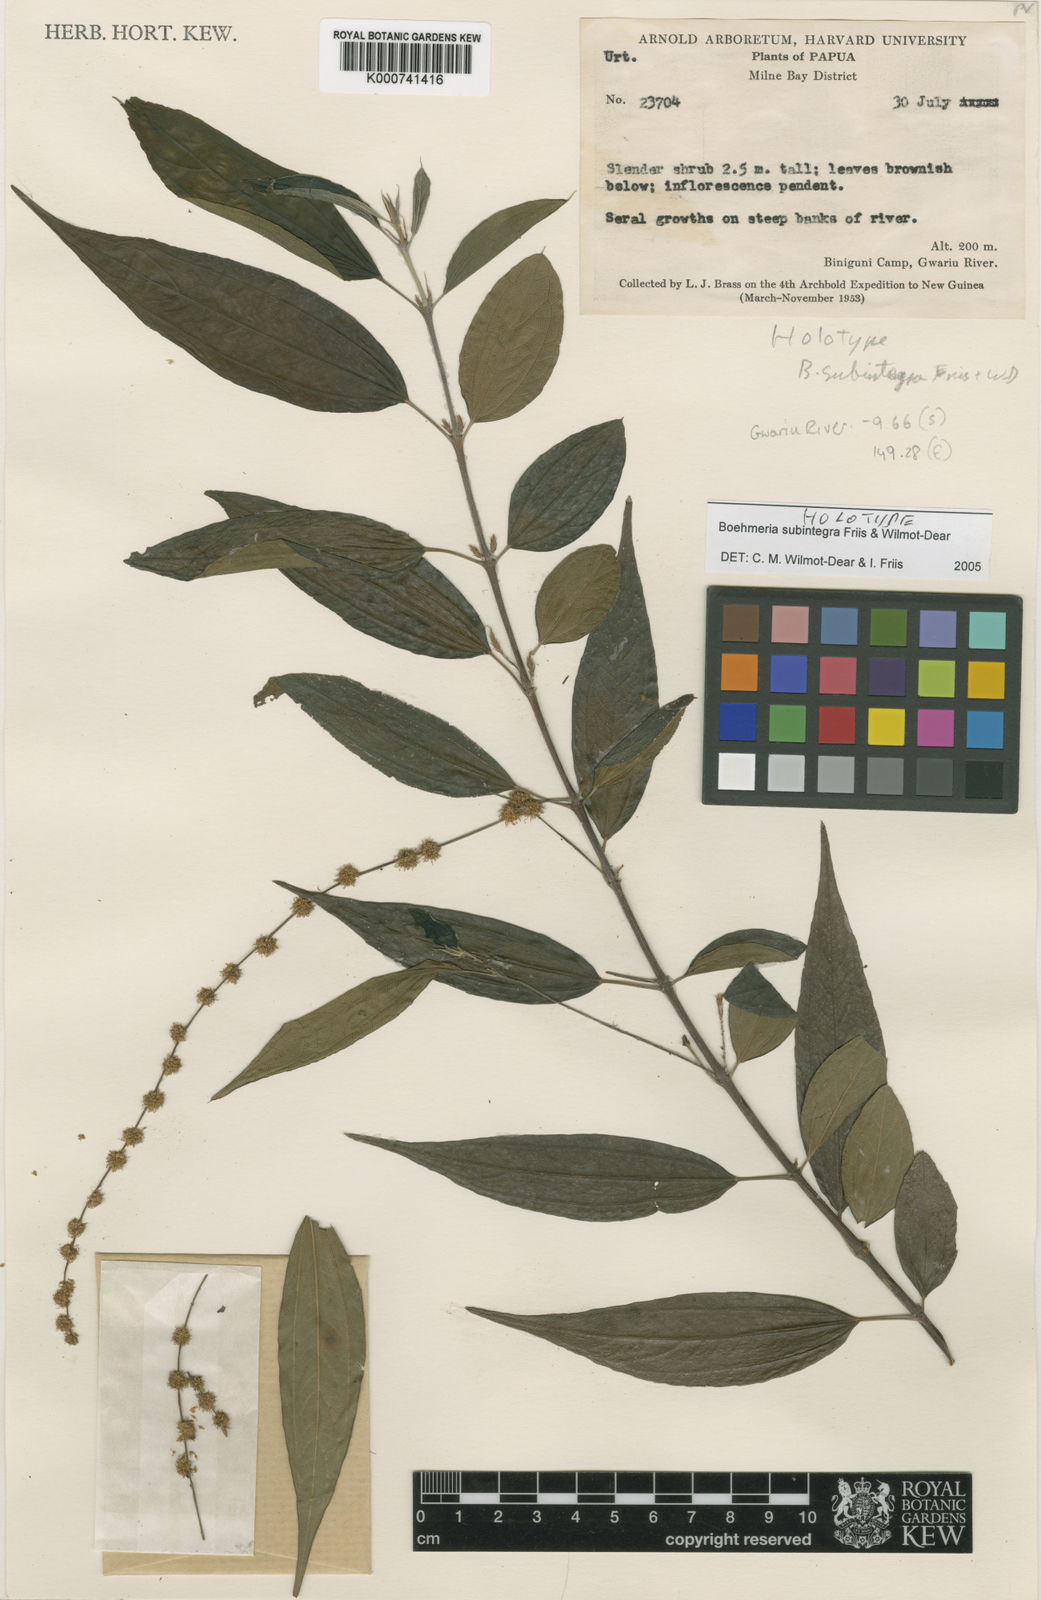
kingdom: Plantae
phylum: Tracheophyta
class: Magnoliopsida
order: Rosales
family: Urticaceae
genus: Boehmeria
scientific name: Boehmeria subintegra
